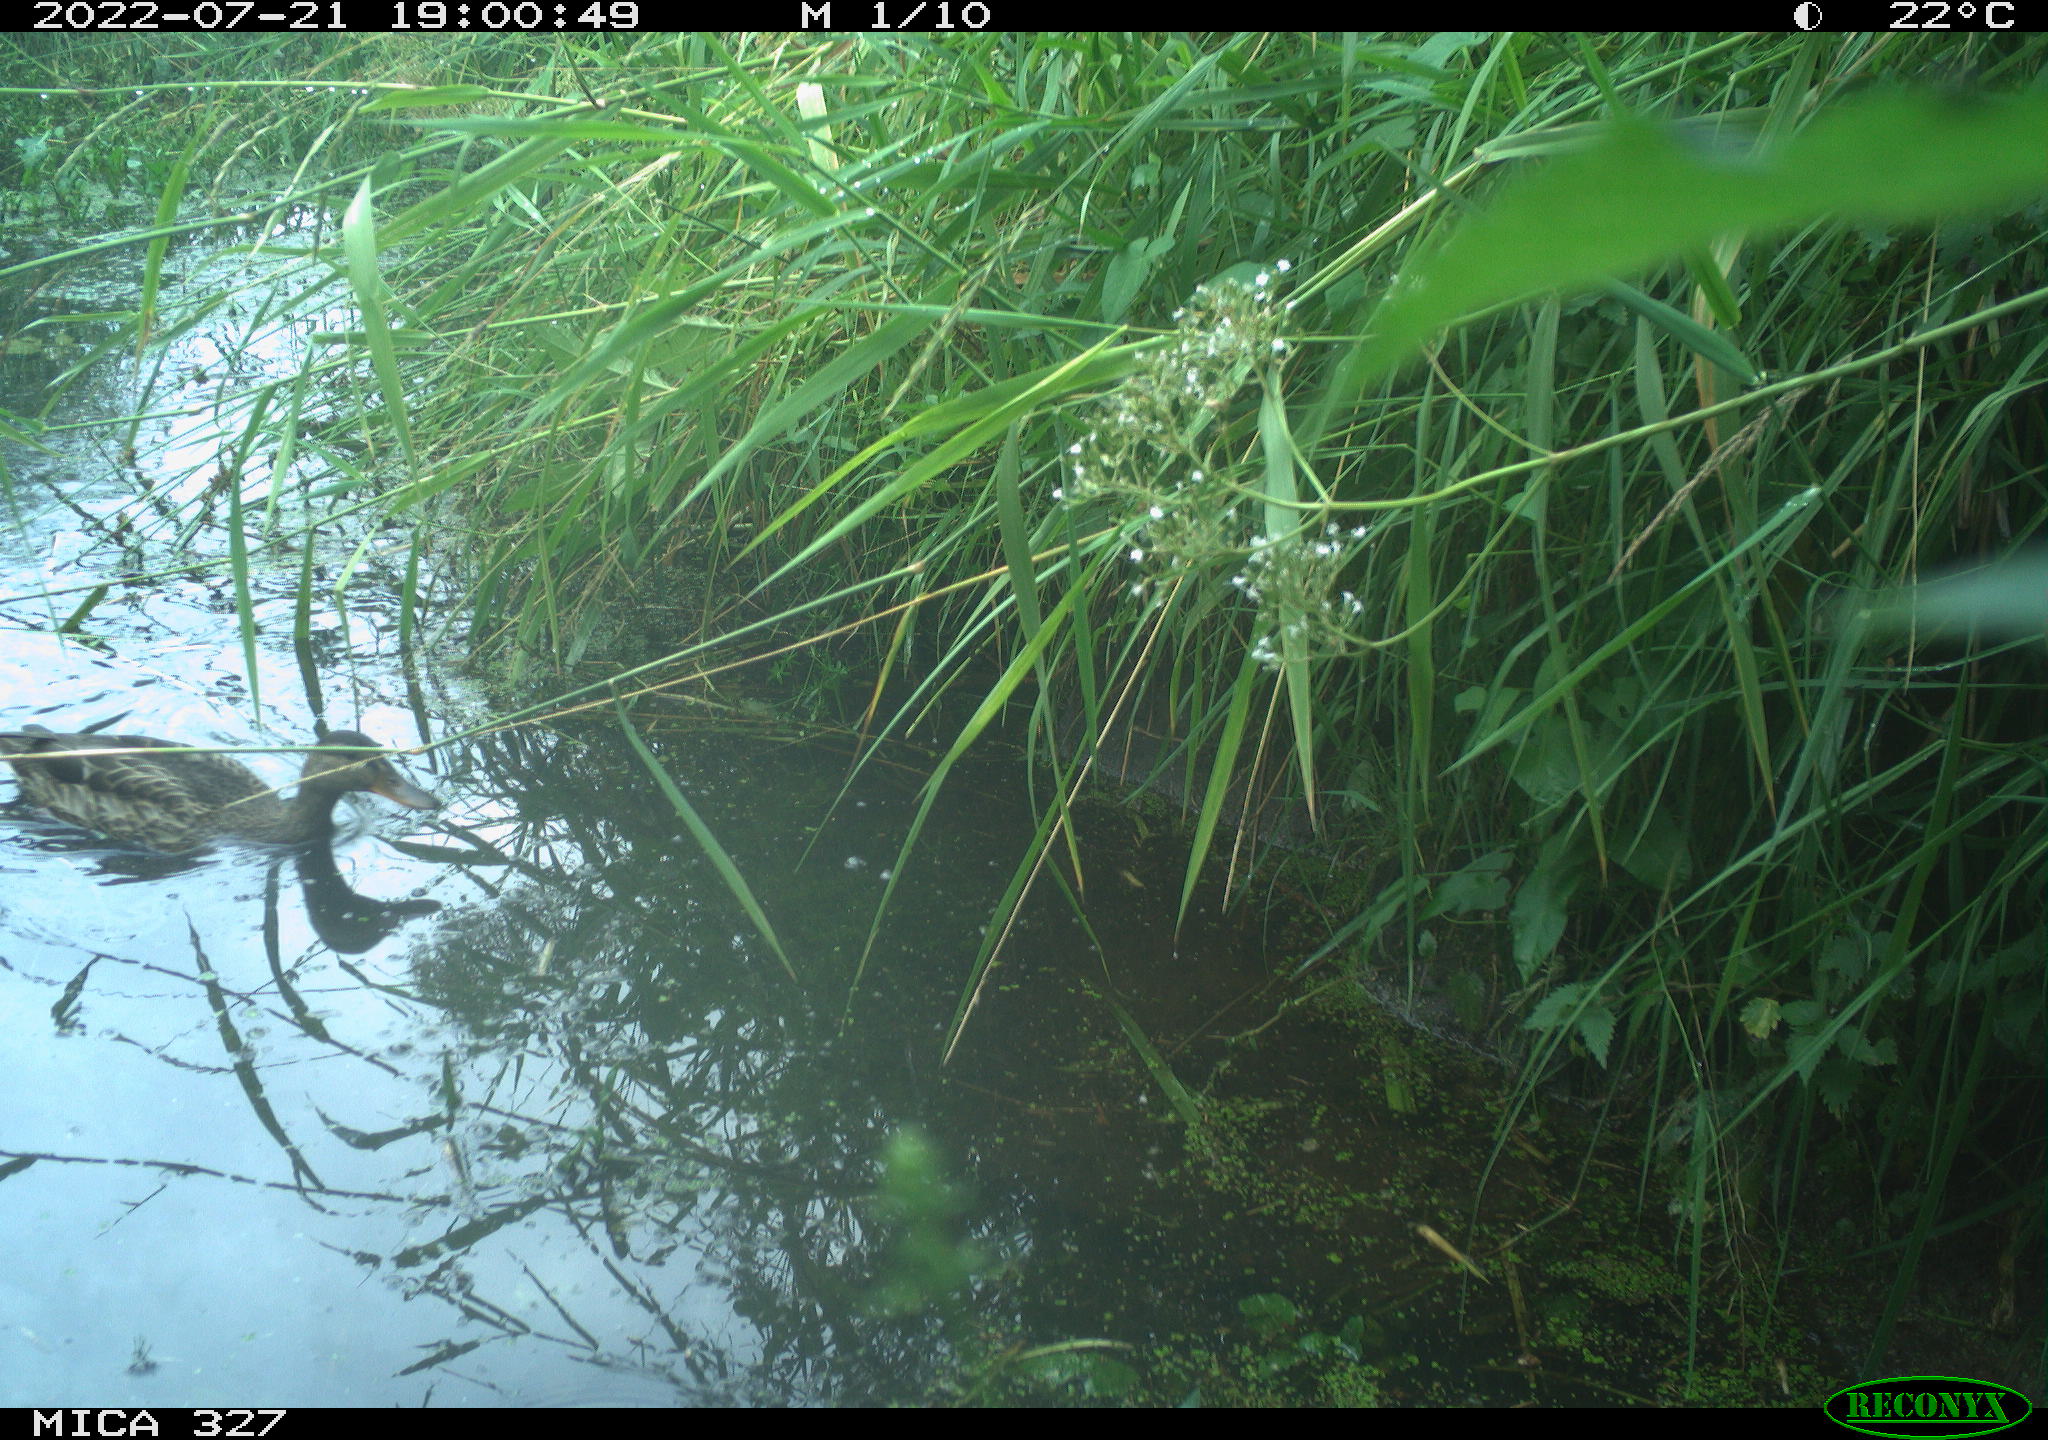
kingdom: Animalia
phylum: Chordata
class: Aves
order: Anseriformes
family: Anatidae
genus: Anas
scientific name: Anas
